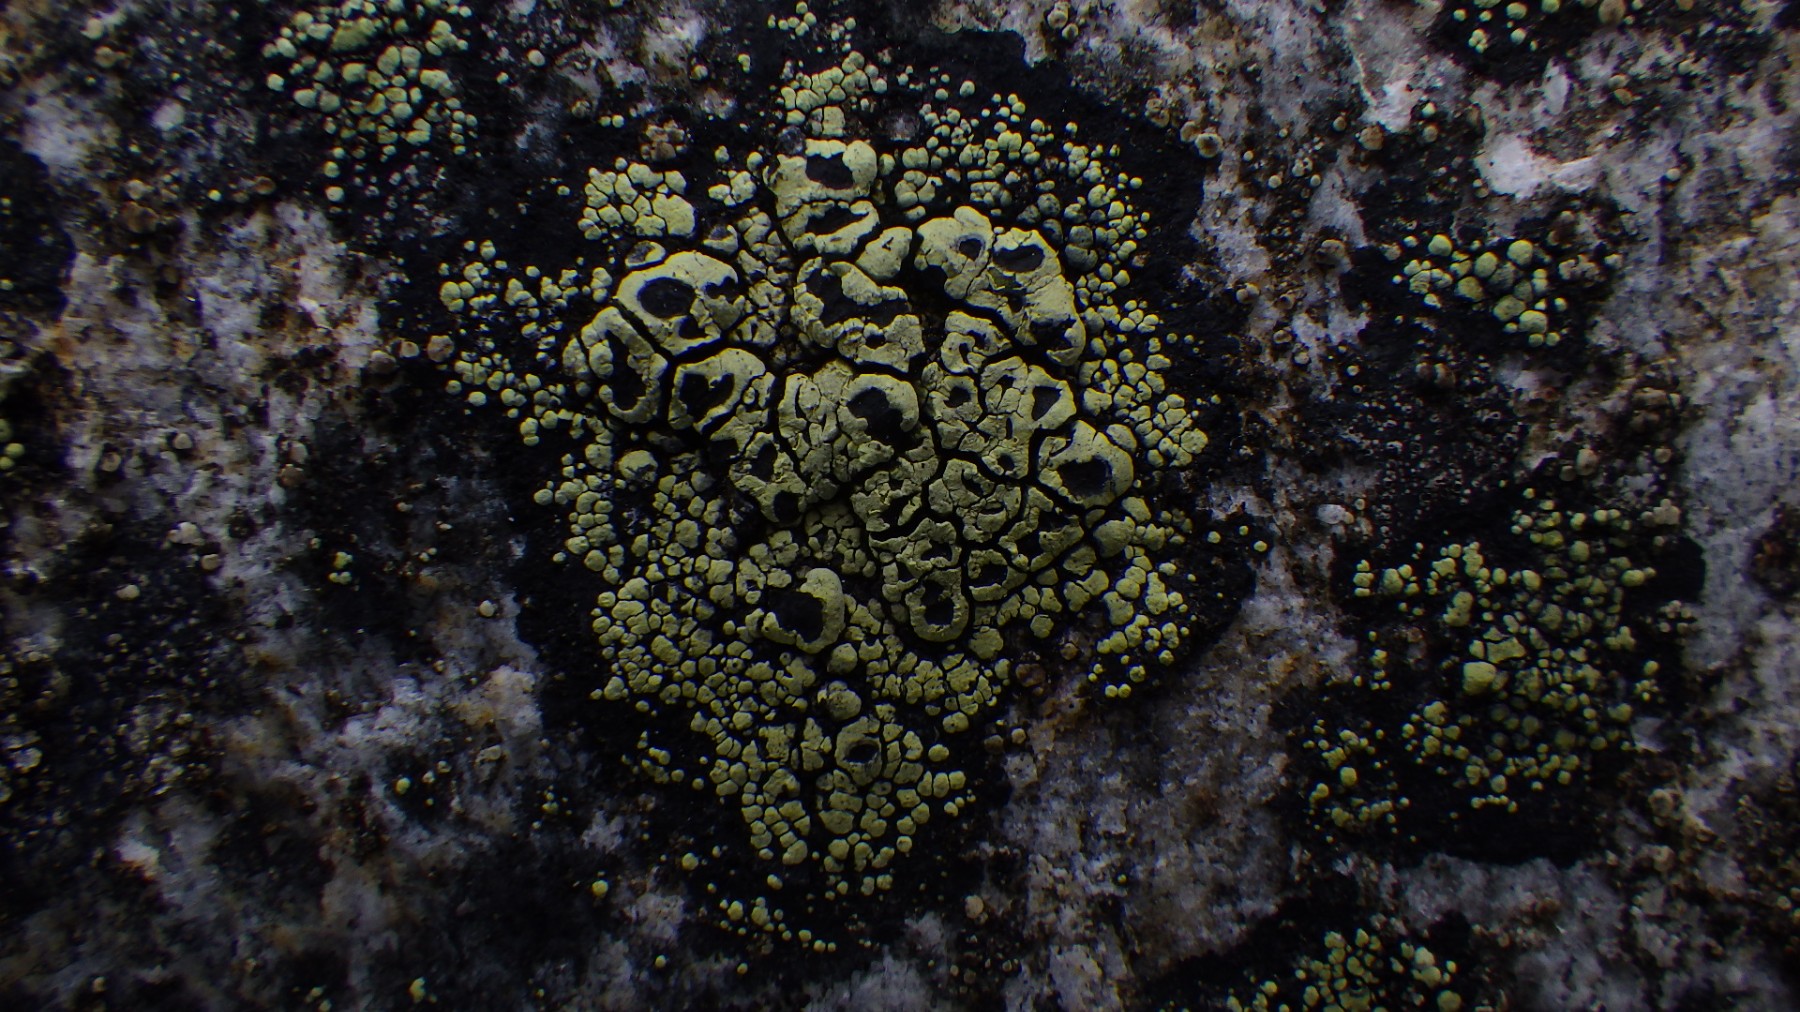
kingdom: Fungi
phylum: Ascomycota
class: Lecanoromycetes
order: Rhizocarpales
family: Rhizocarpaceae
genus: Rhizocarpon
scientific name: Rhizocarpon lecanorinum
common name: krave-landkortlav
